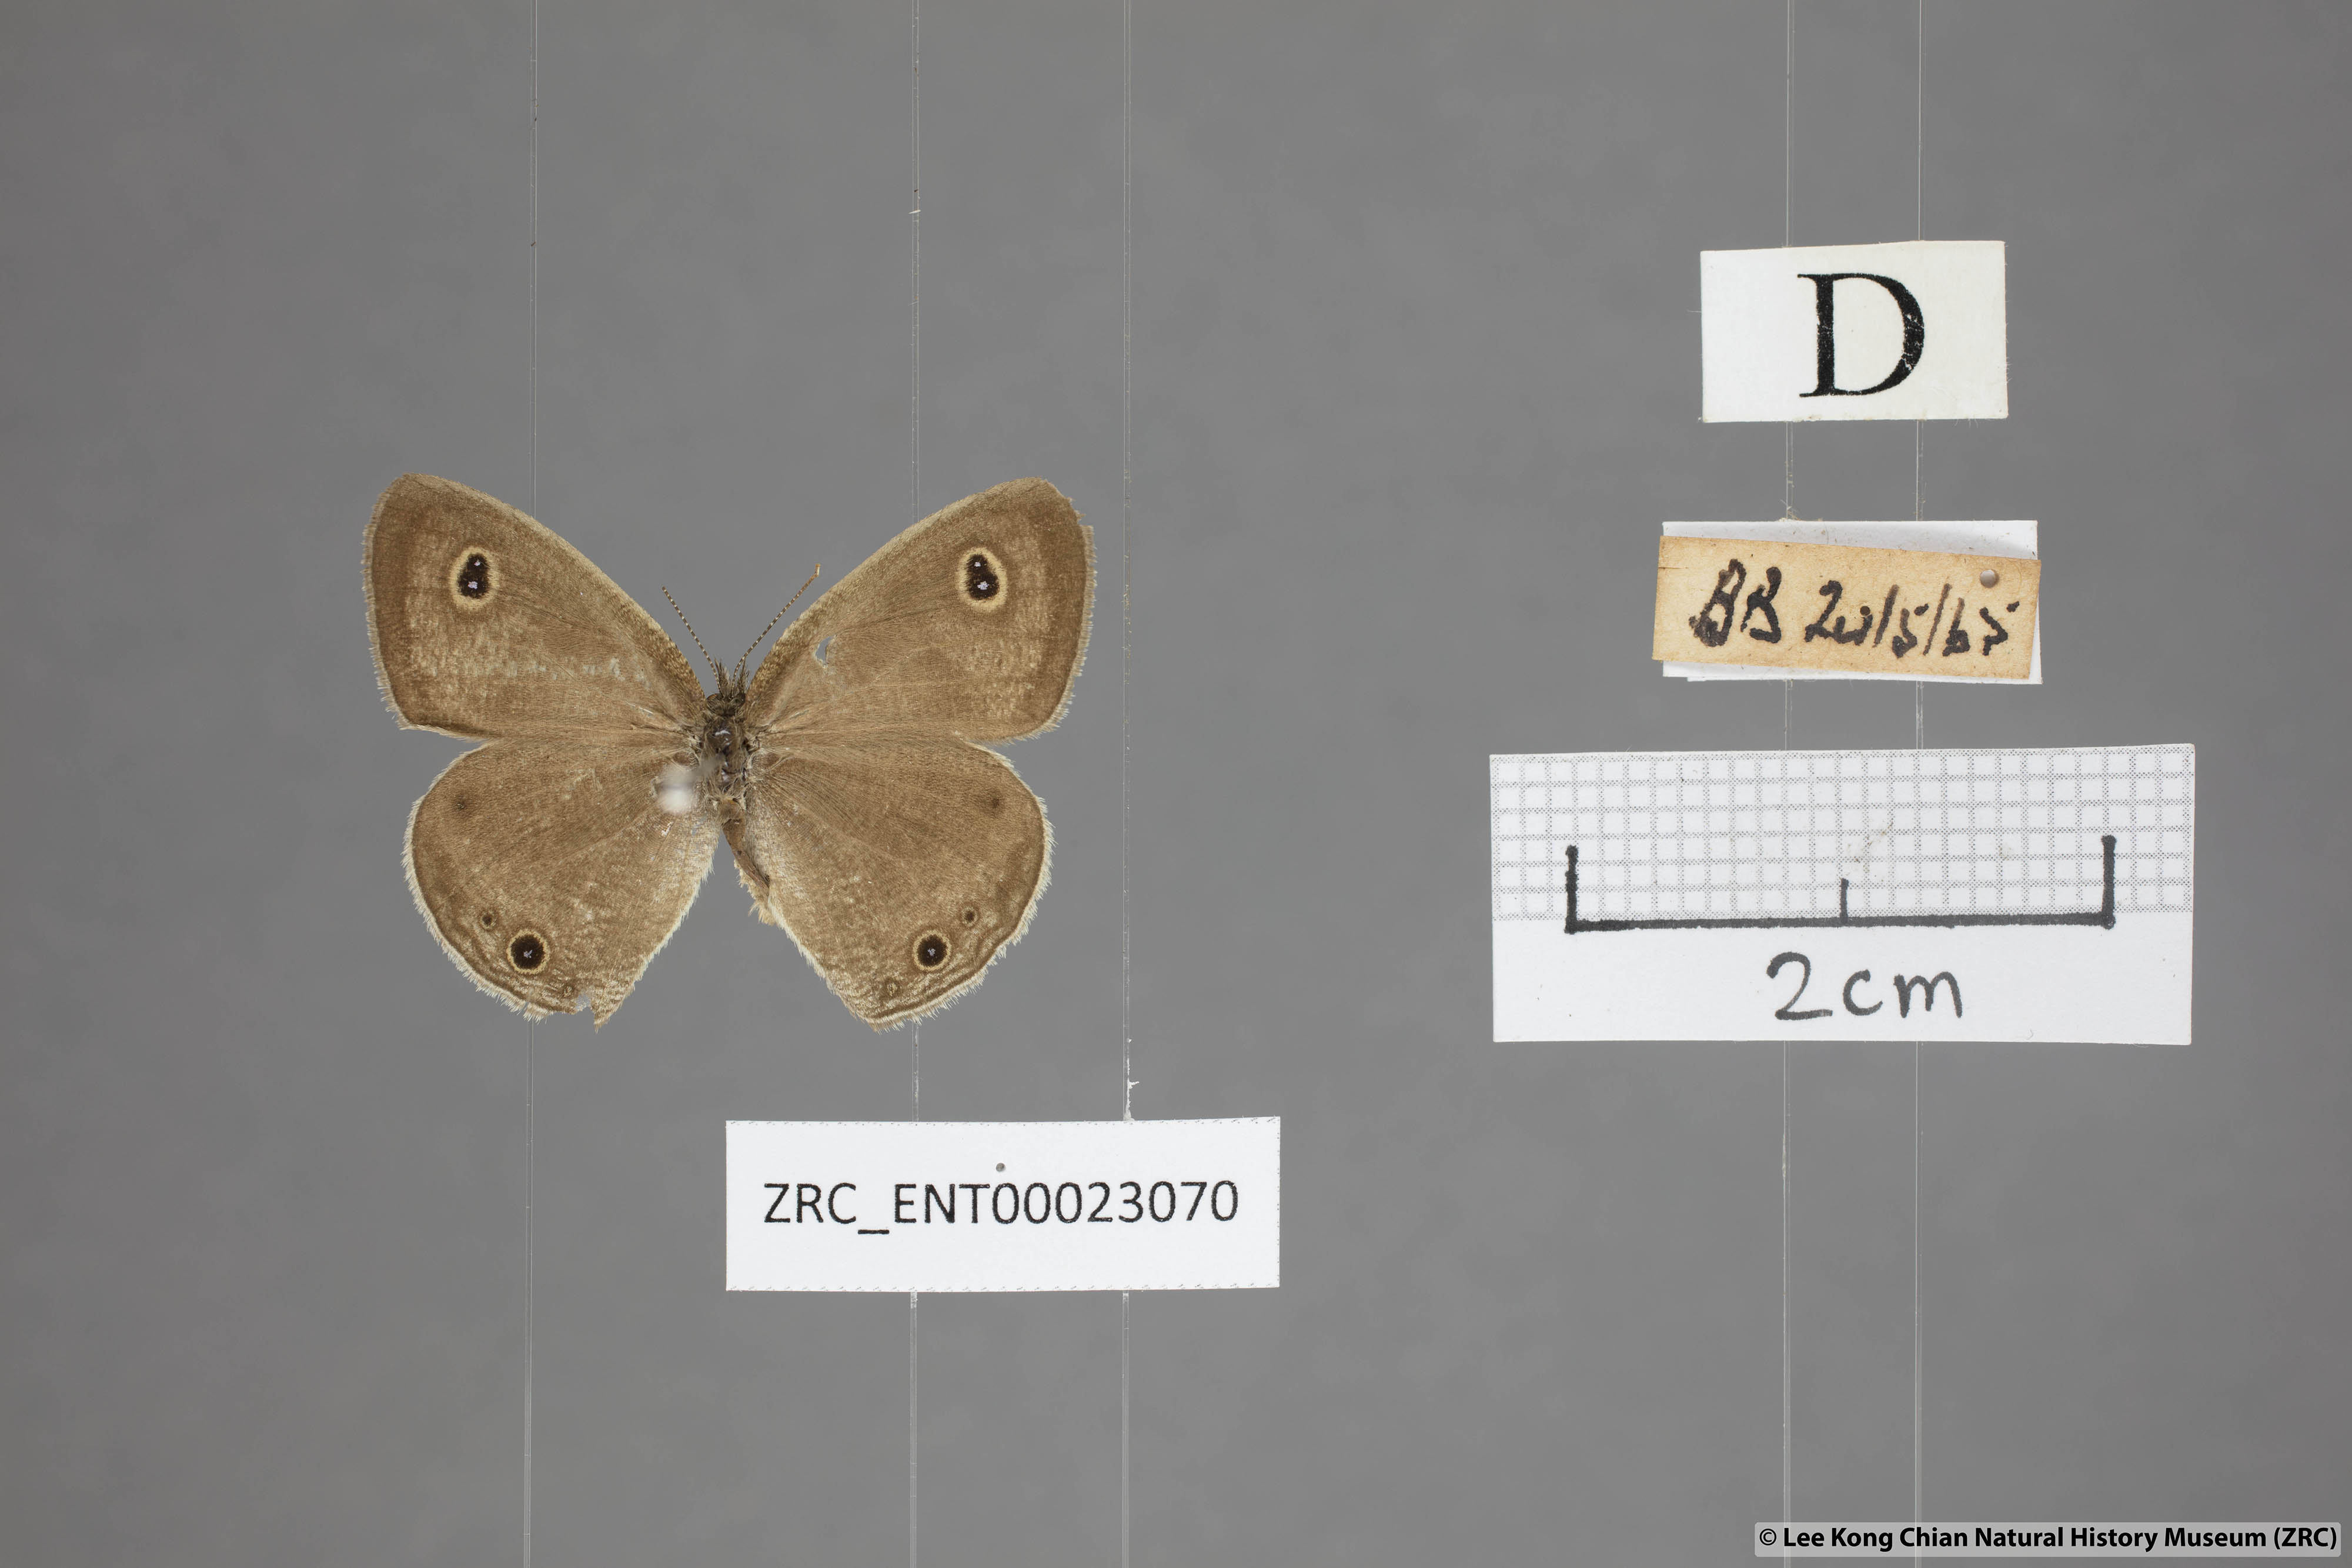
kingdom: Animalia
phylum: Arthropoda
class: Insecta
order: Lepidoptera
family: Nymphalidae
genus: Ypthima
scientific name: Ypthima huebneri
